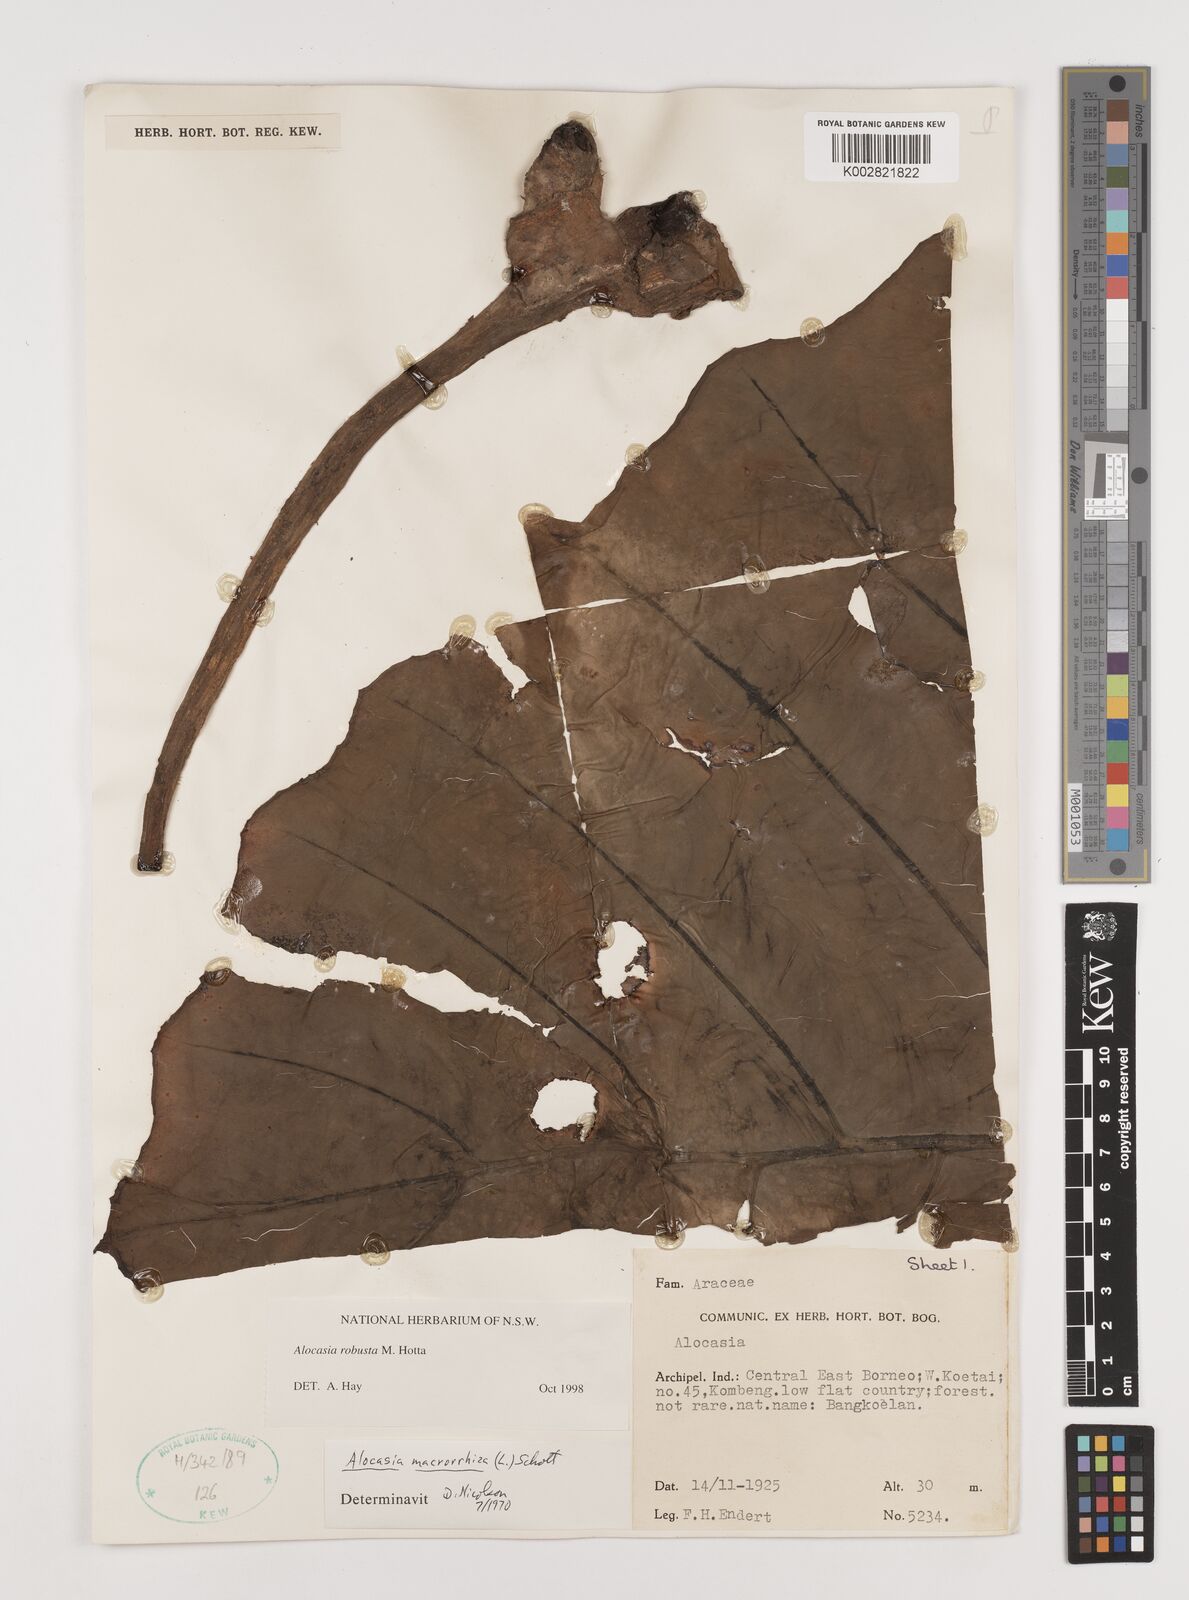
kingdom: Plantae
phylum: Tracheophyta
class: Liliopsida
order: Alismatales
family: Araceae
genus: Alocasia
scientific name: Alocasia robusta
